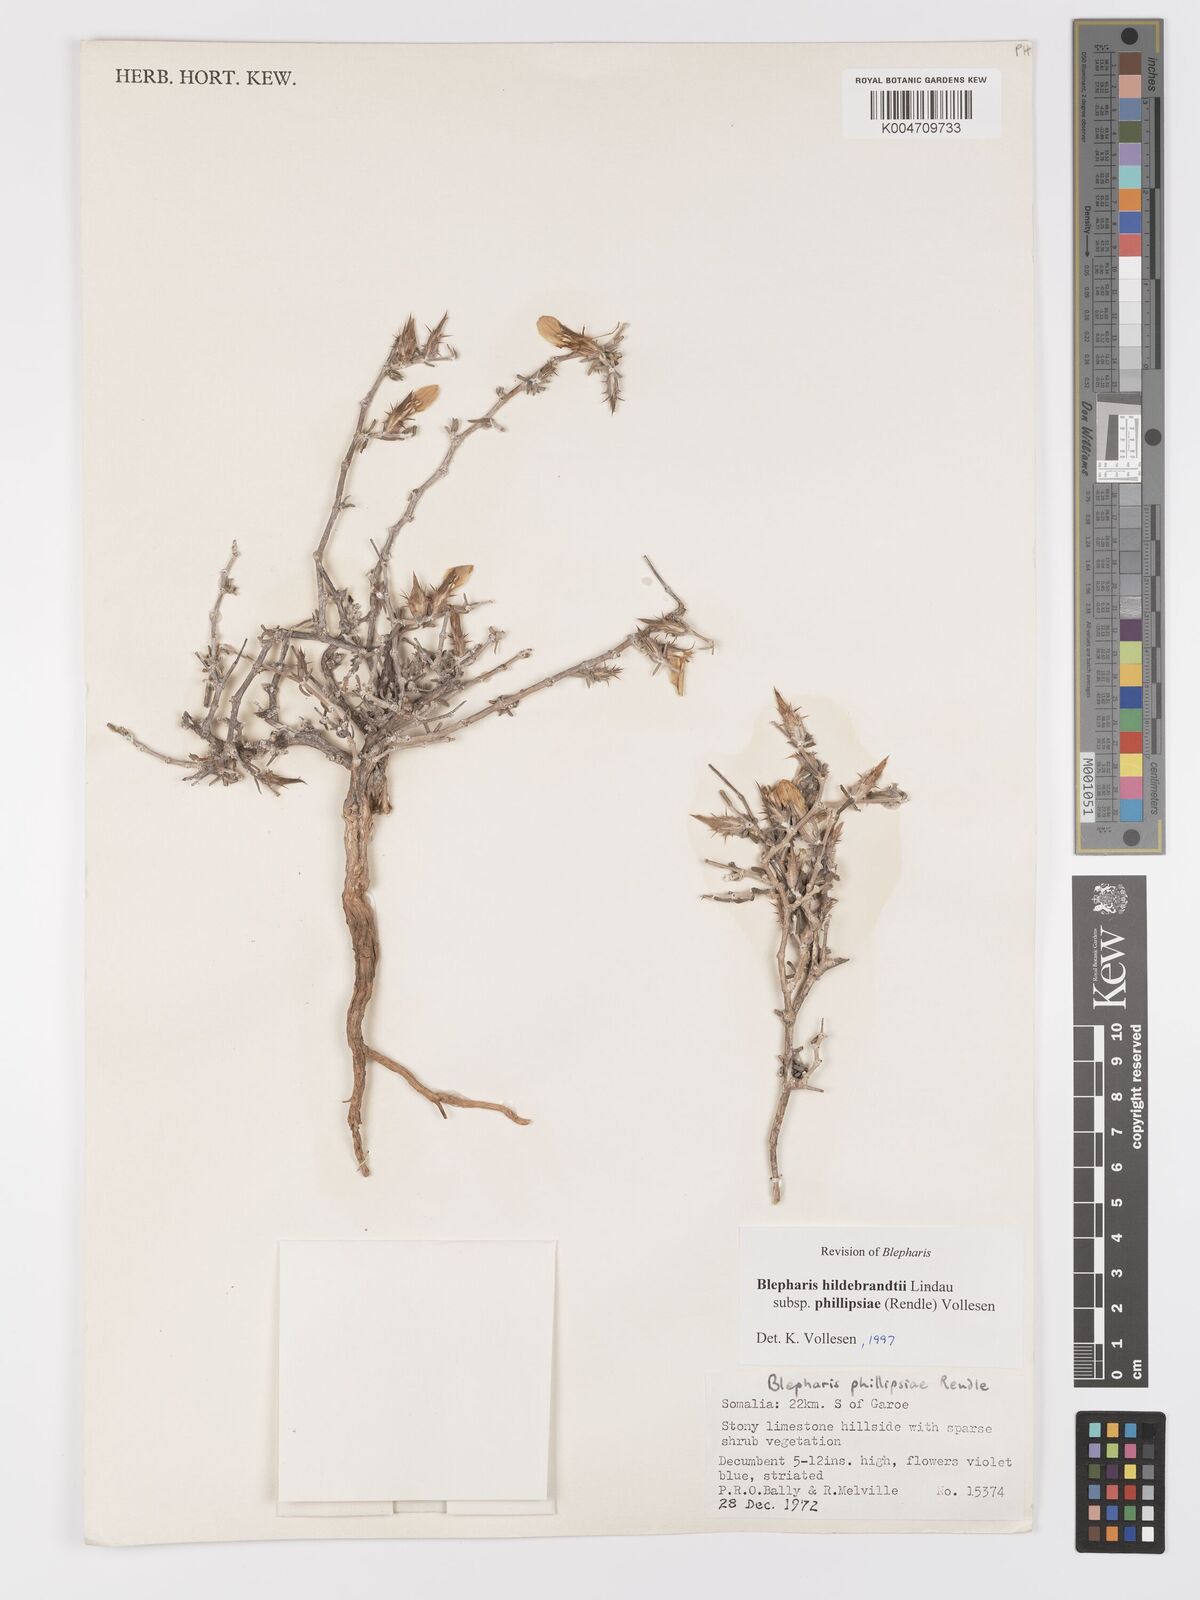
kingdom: Plantae
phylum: Tracheophyta
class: Magnoliopsida
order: Lamiales
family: Acanthaceae
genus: Blepharis
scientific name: Blepharis hildebrandtii
